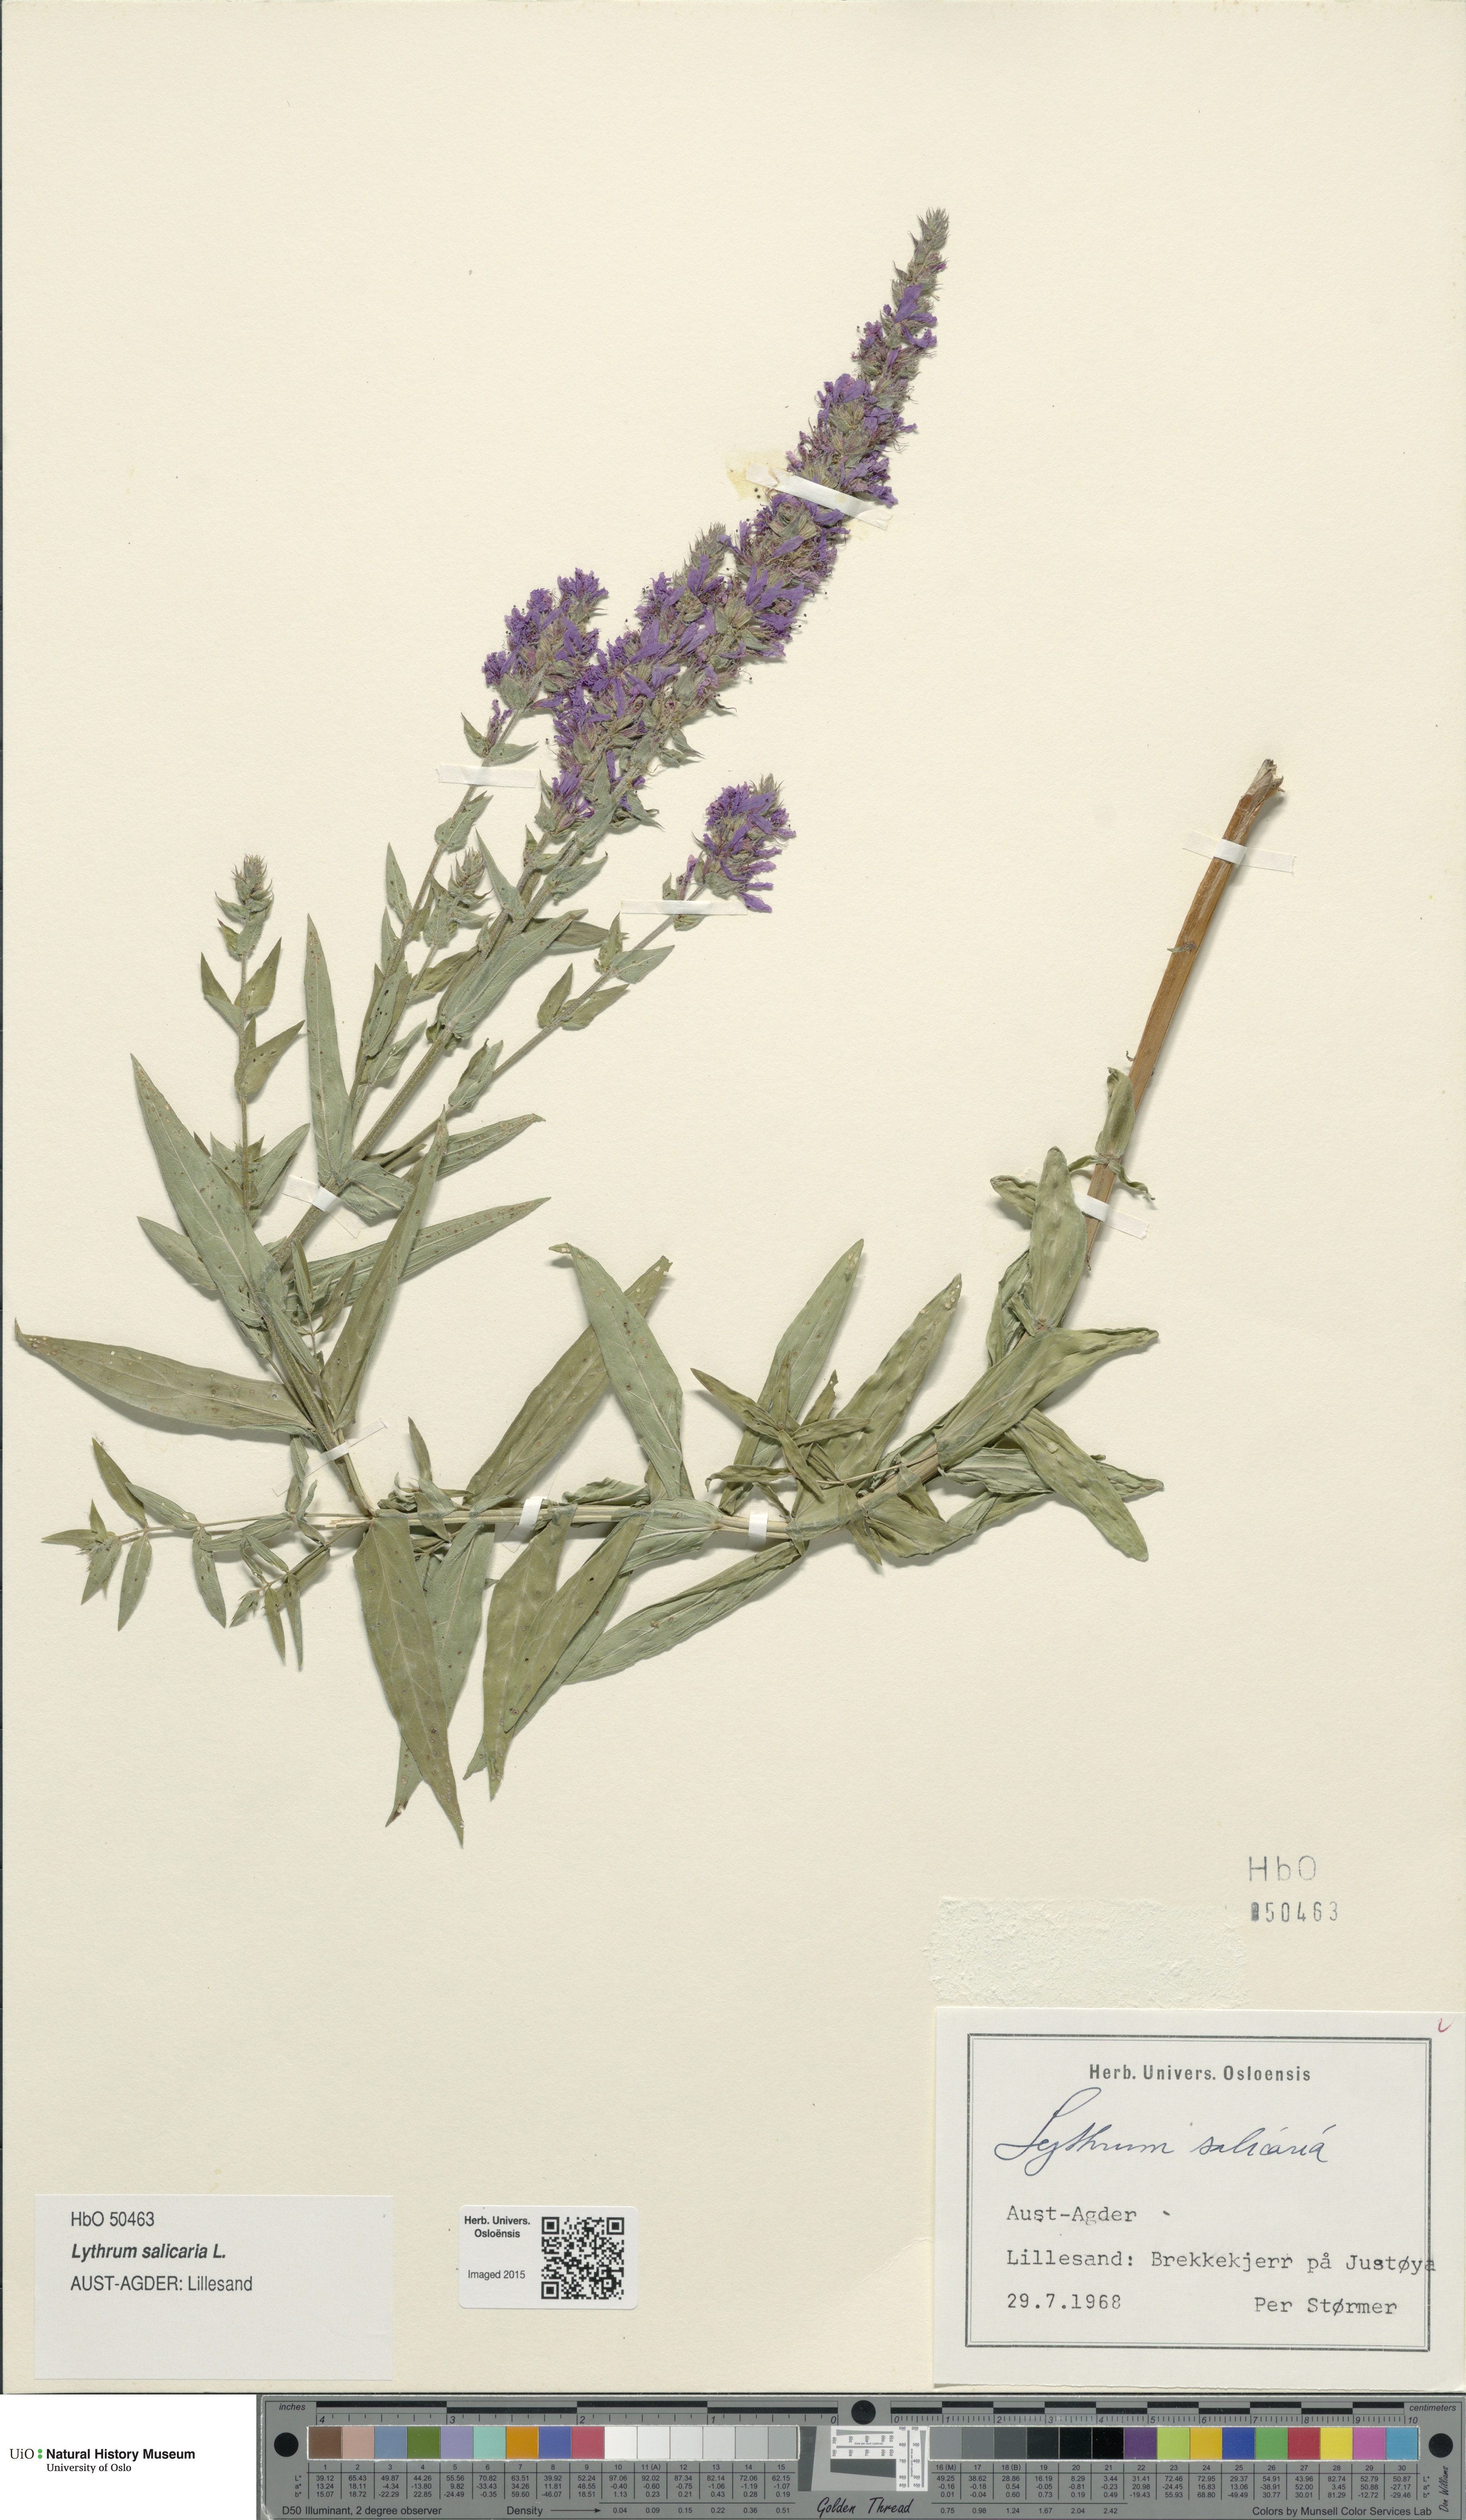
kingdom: Plantae
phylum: Tracheophyta
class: Magnoliopsida
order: Myrtales
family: Lythraceae
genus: Lythrum
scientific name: Lythrum salicaria
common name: Purple loosestrife
